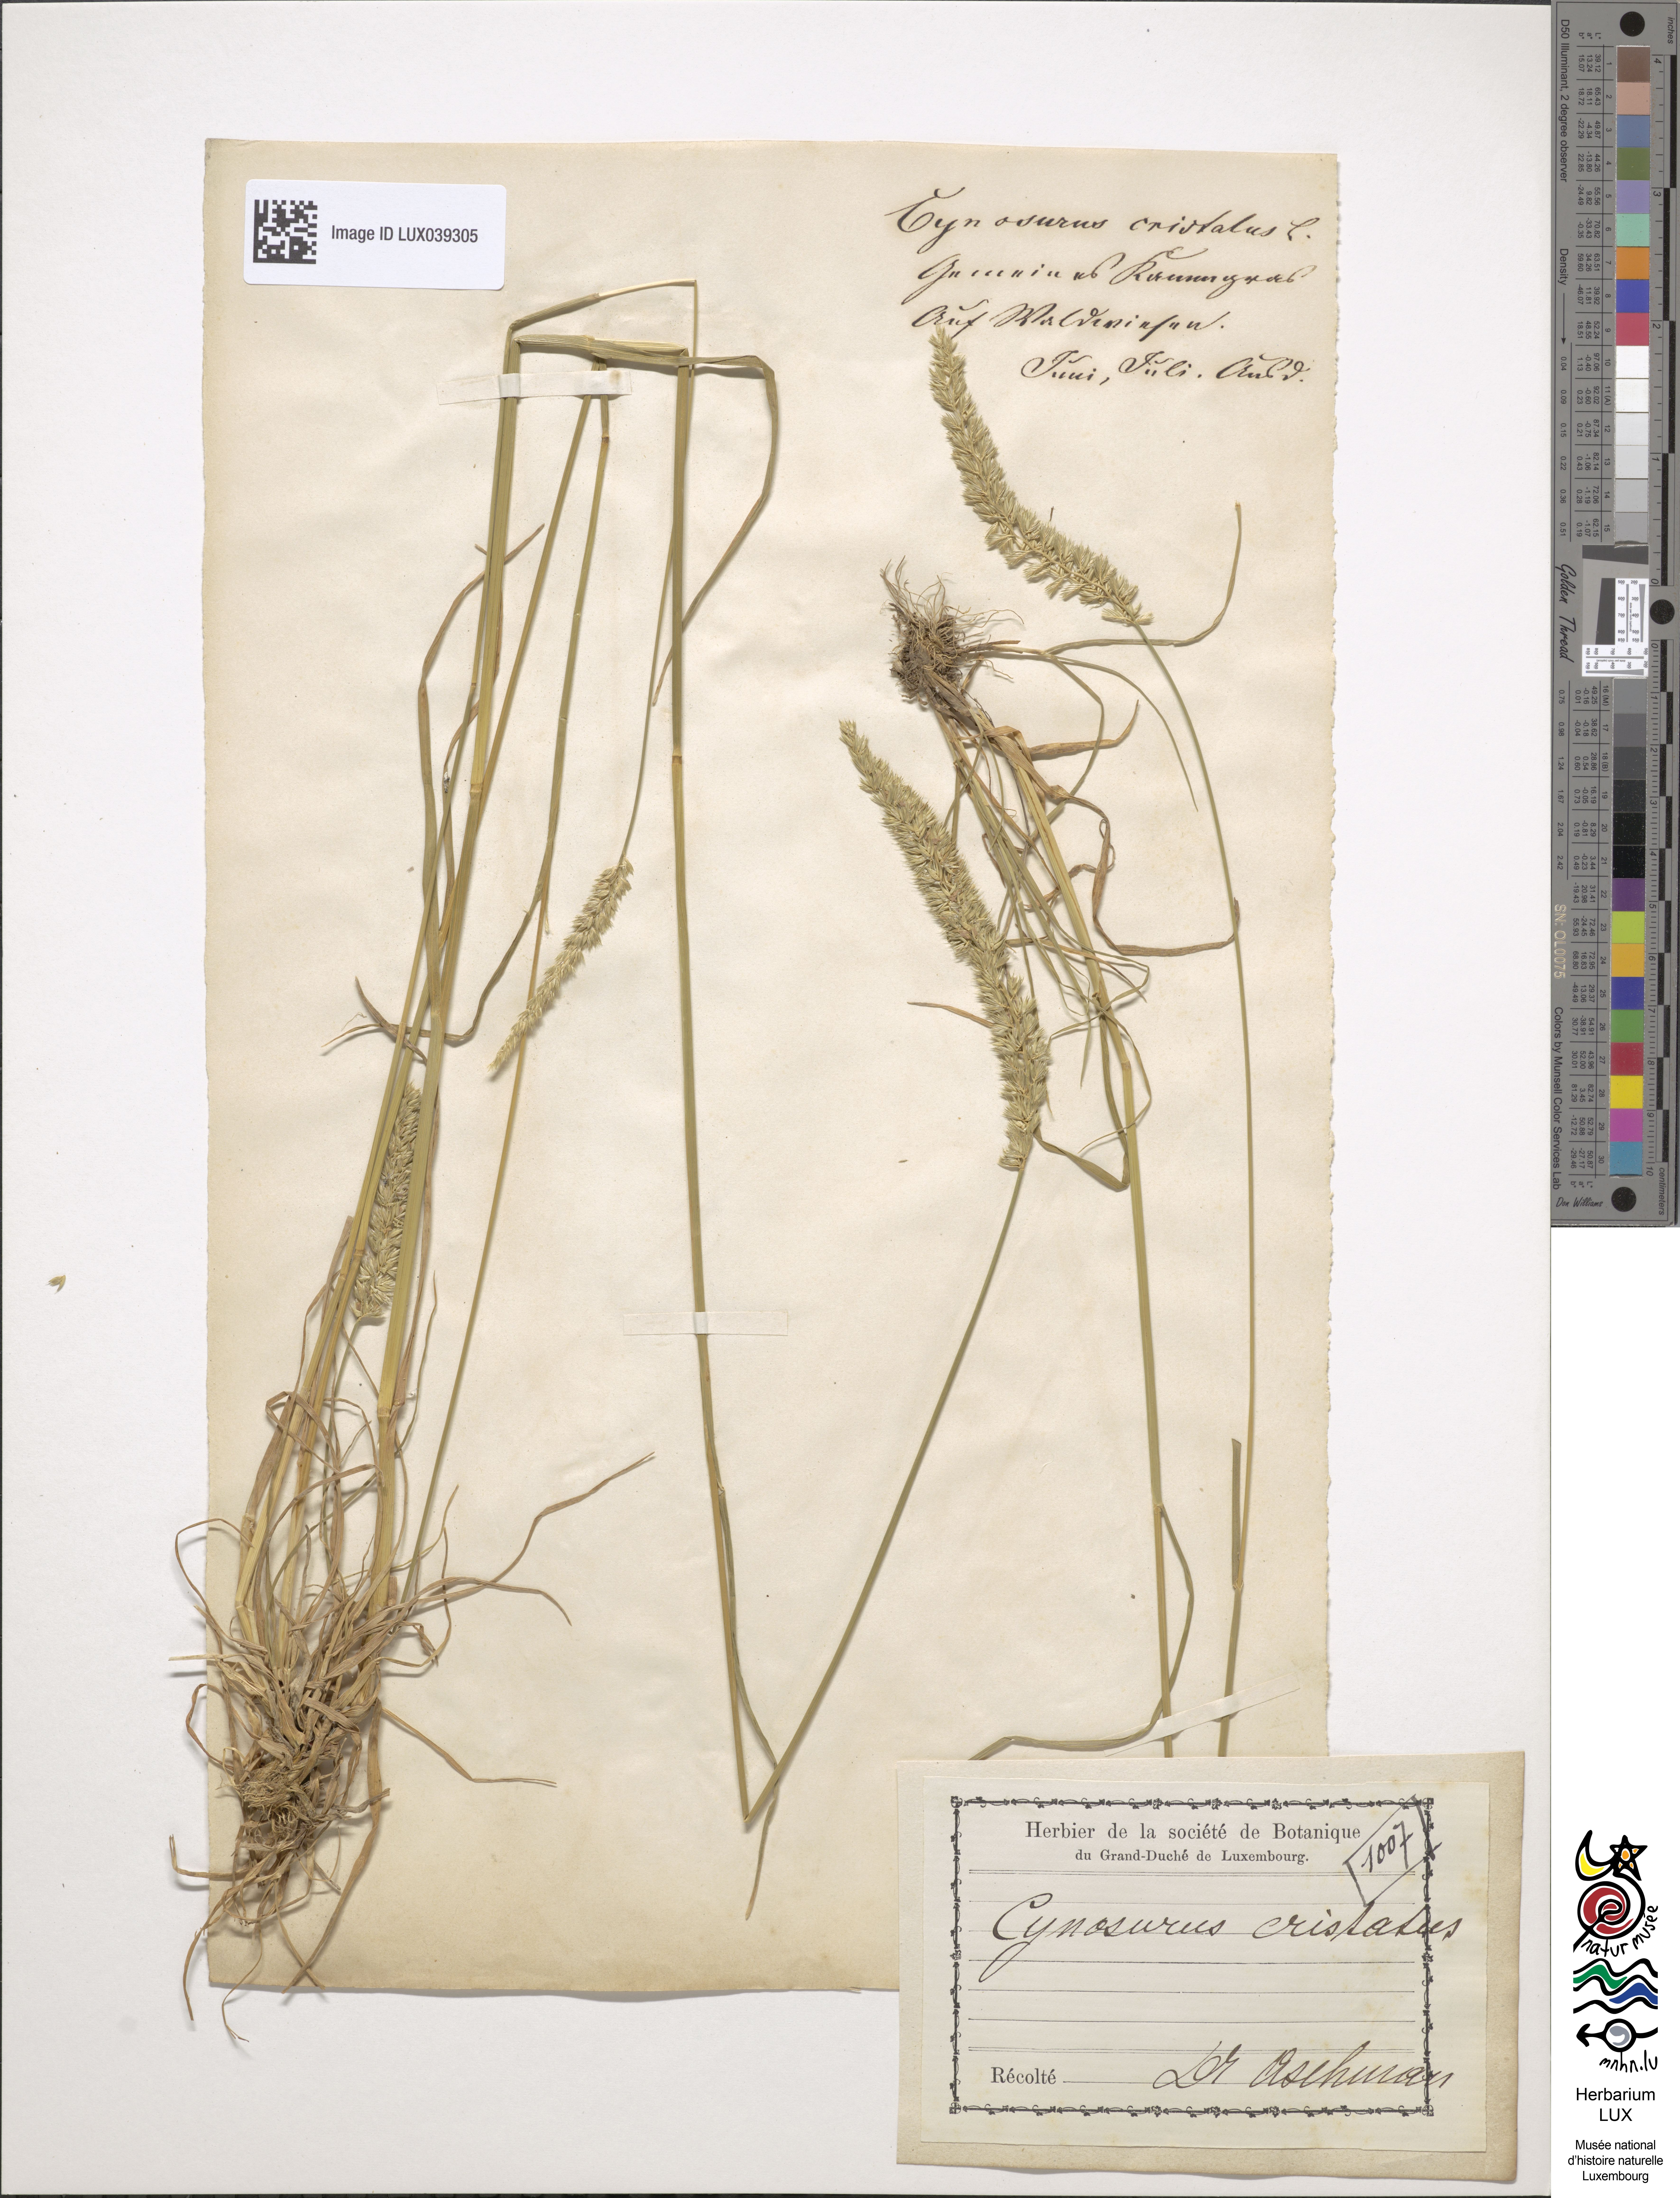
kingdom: Plantae
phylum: Tracheophyta
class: Liliopsida
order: Poales
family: Poaceae
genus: Cynosurus
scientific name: Cynosurus cristatus
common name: Crested dog's-tail
